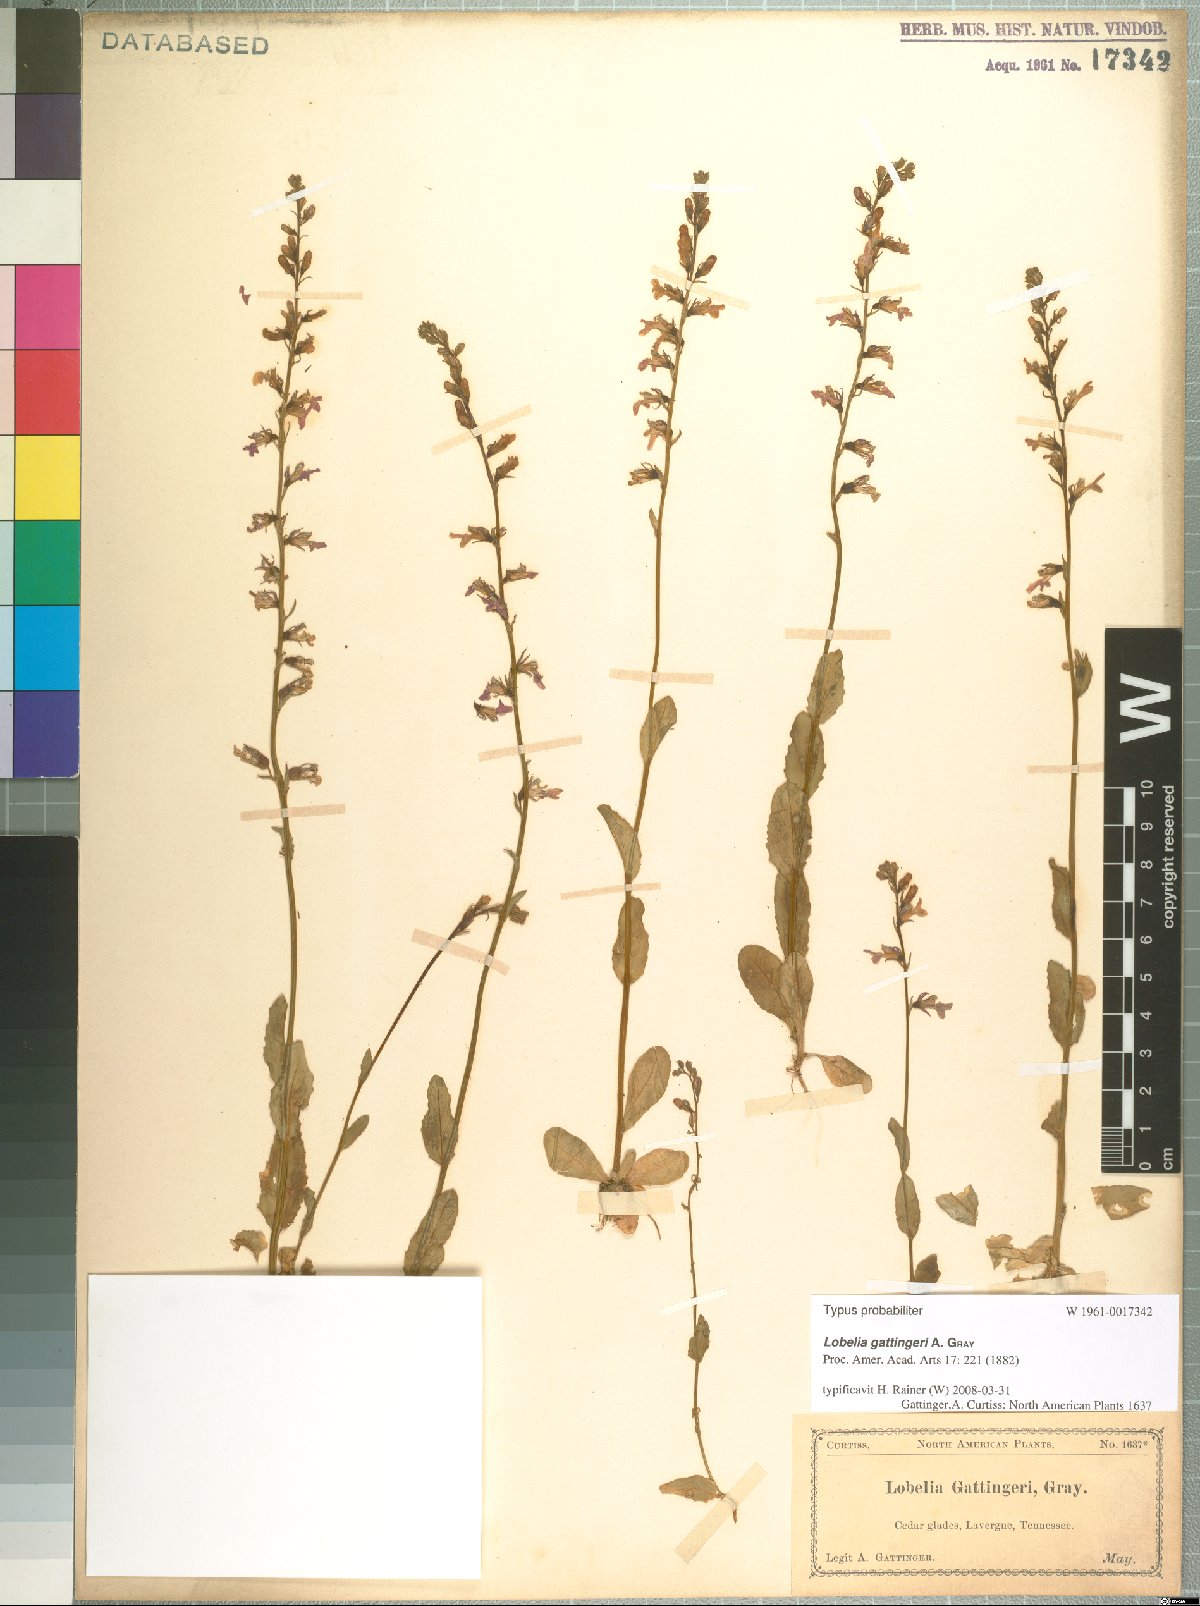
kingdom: Plantae
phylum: Tracheophyta
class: Magnoliopsida
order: Asterales
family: Campanulaceae
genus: Lobelia
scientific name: Lobelia gattingeri
